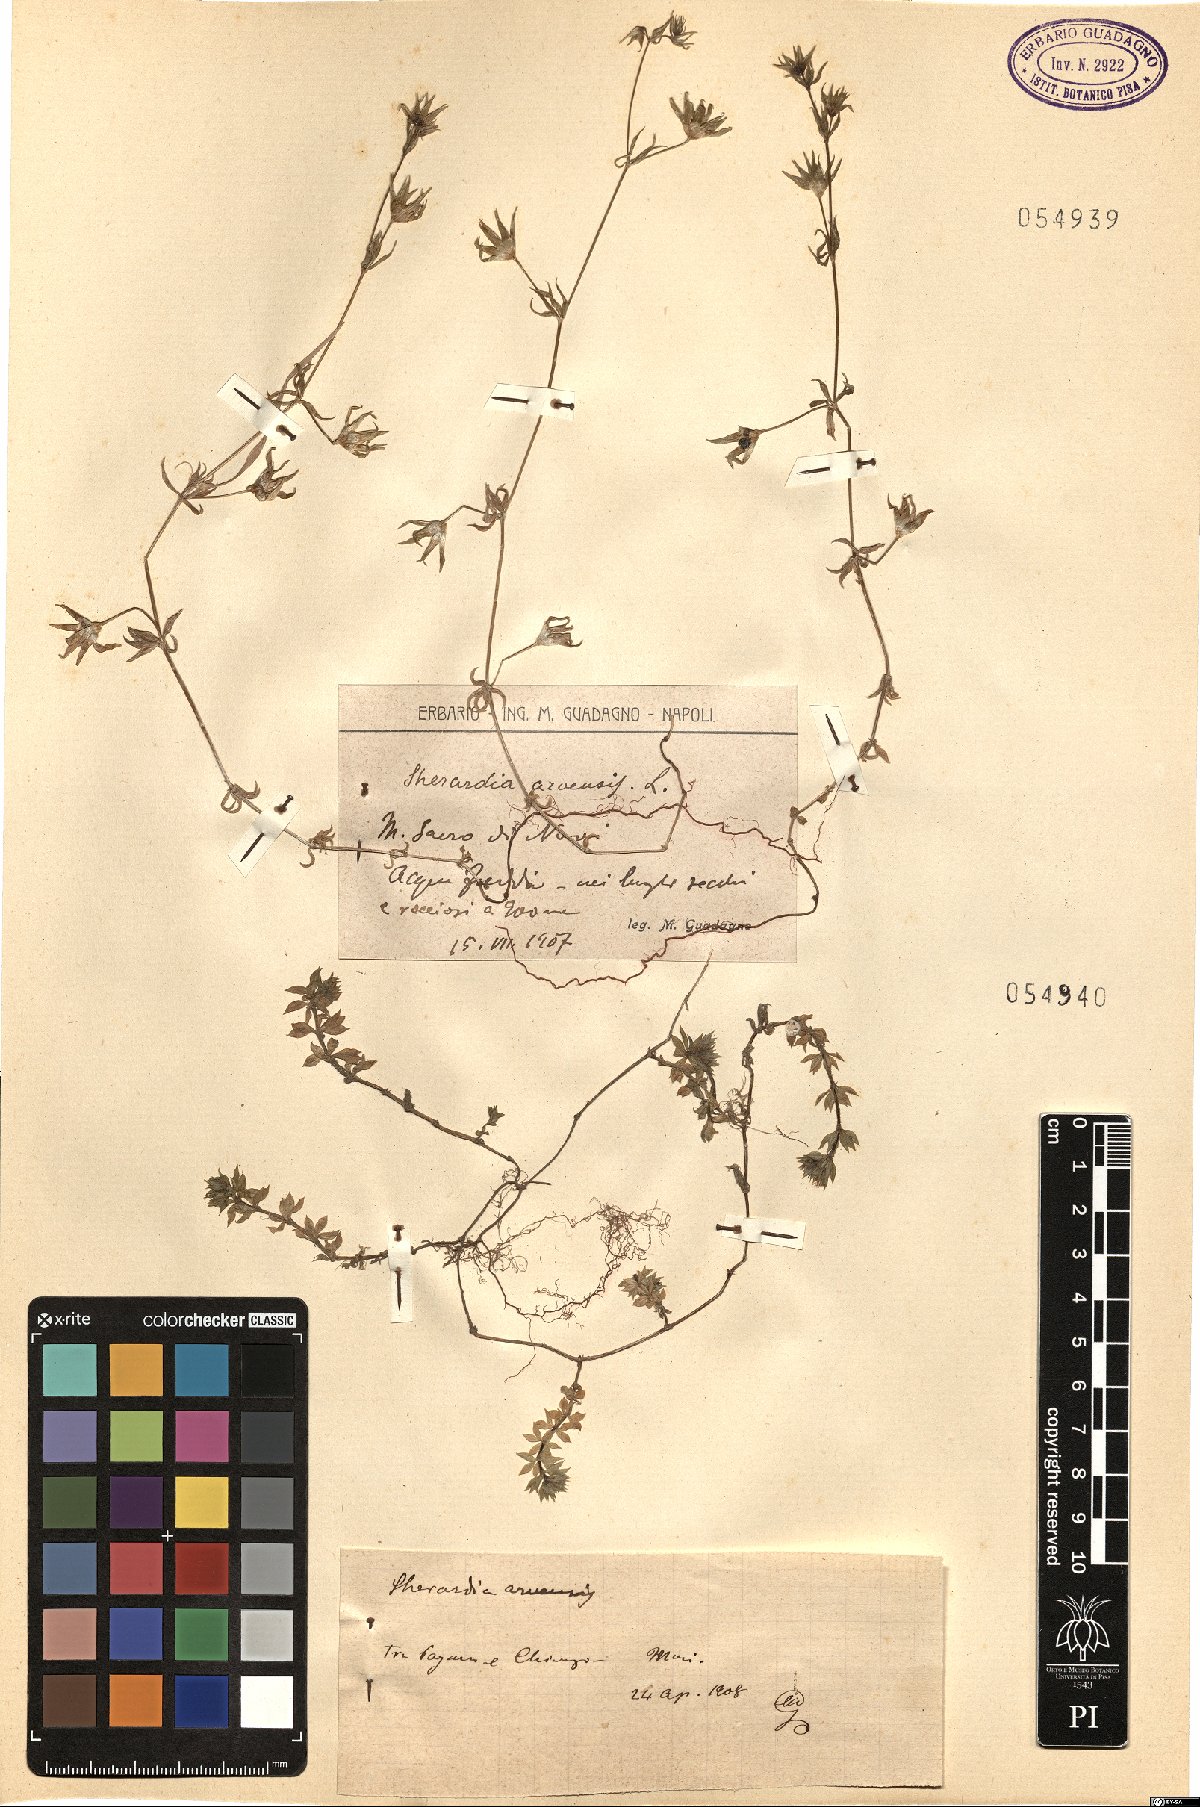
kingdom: Plantae
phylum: Tracheophyta
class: Magnoliopsida
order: Gentianales
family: Rubiaceae
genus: Sherardia
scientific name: Sherardia arvensis
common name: Field madder
